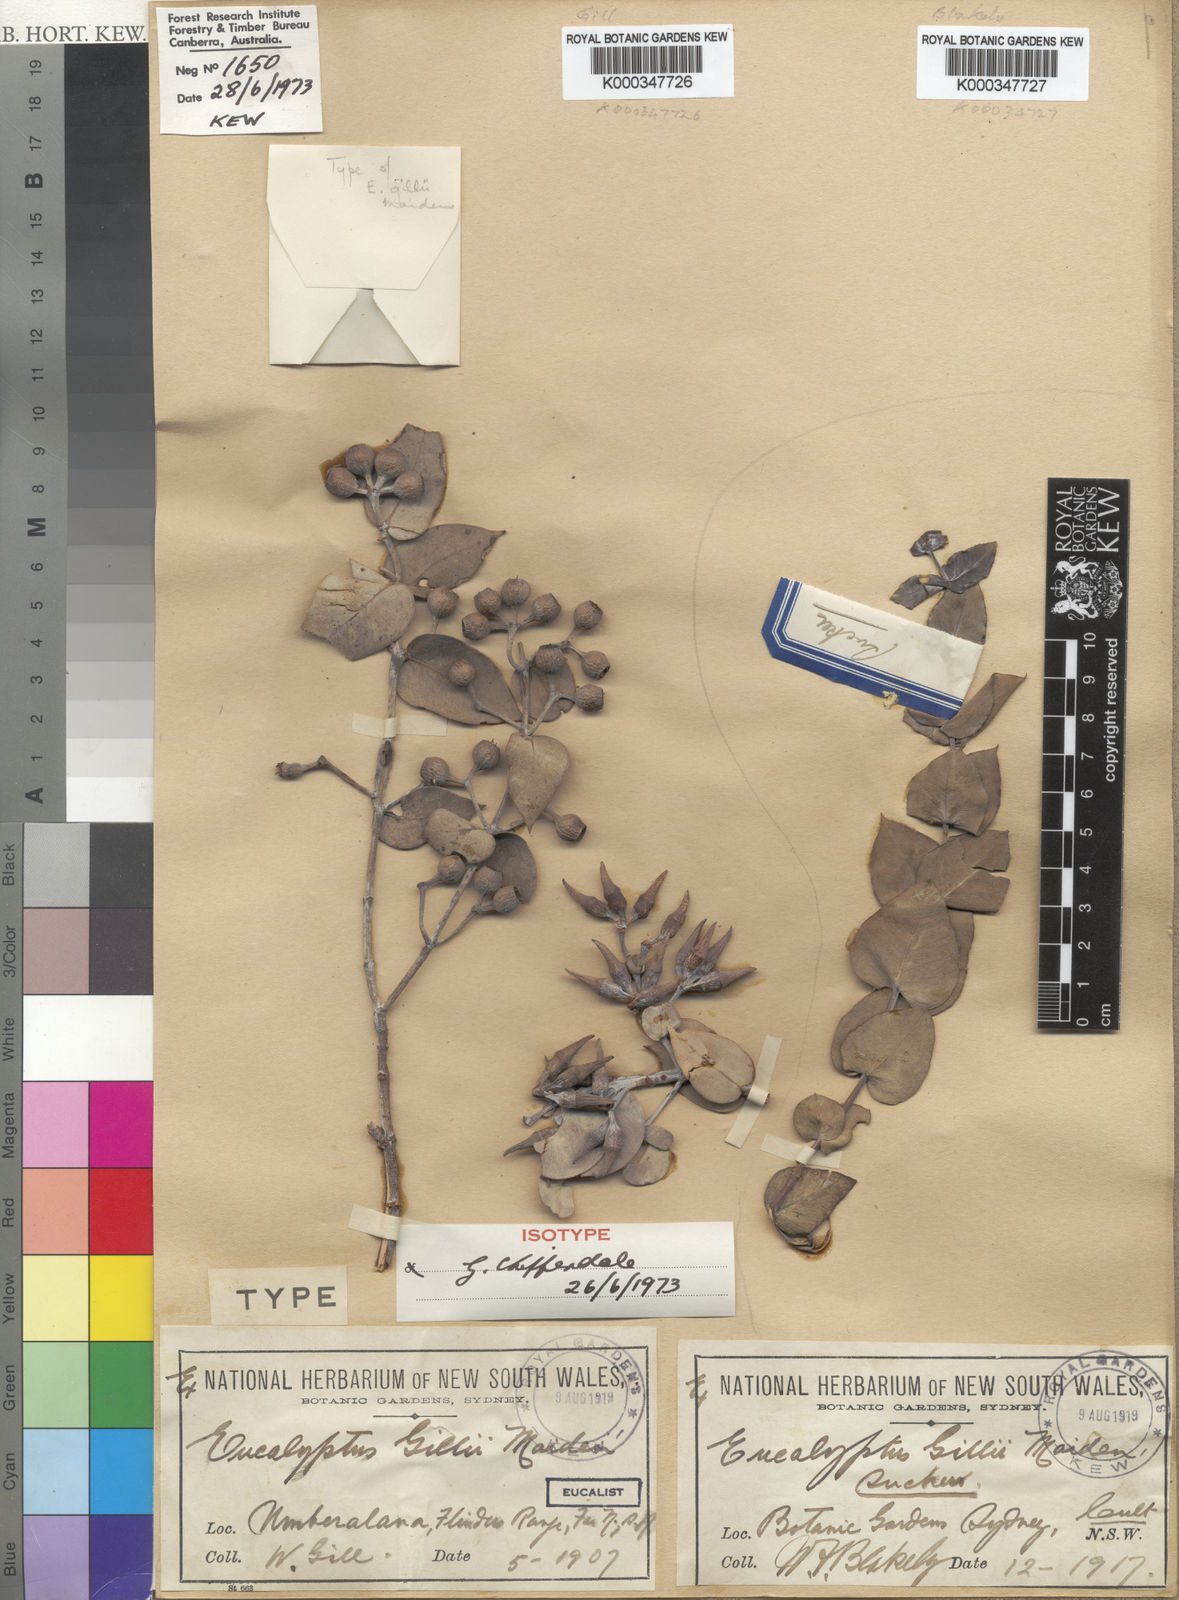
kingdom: Plantae
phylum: Tracheophyta
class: Magnoliopsida
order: Myrtales
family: Myrtaceae
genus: Eucalyptus
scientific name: Eucalyptus gillii
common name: Broken hill mallee
